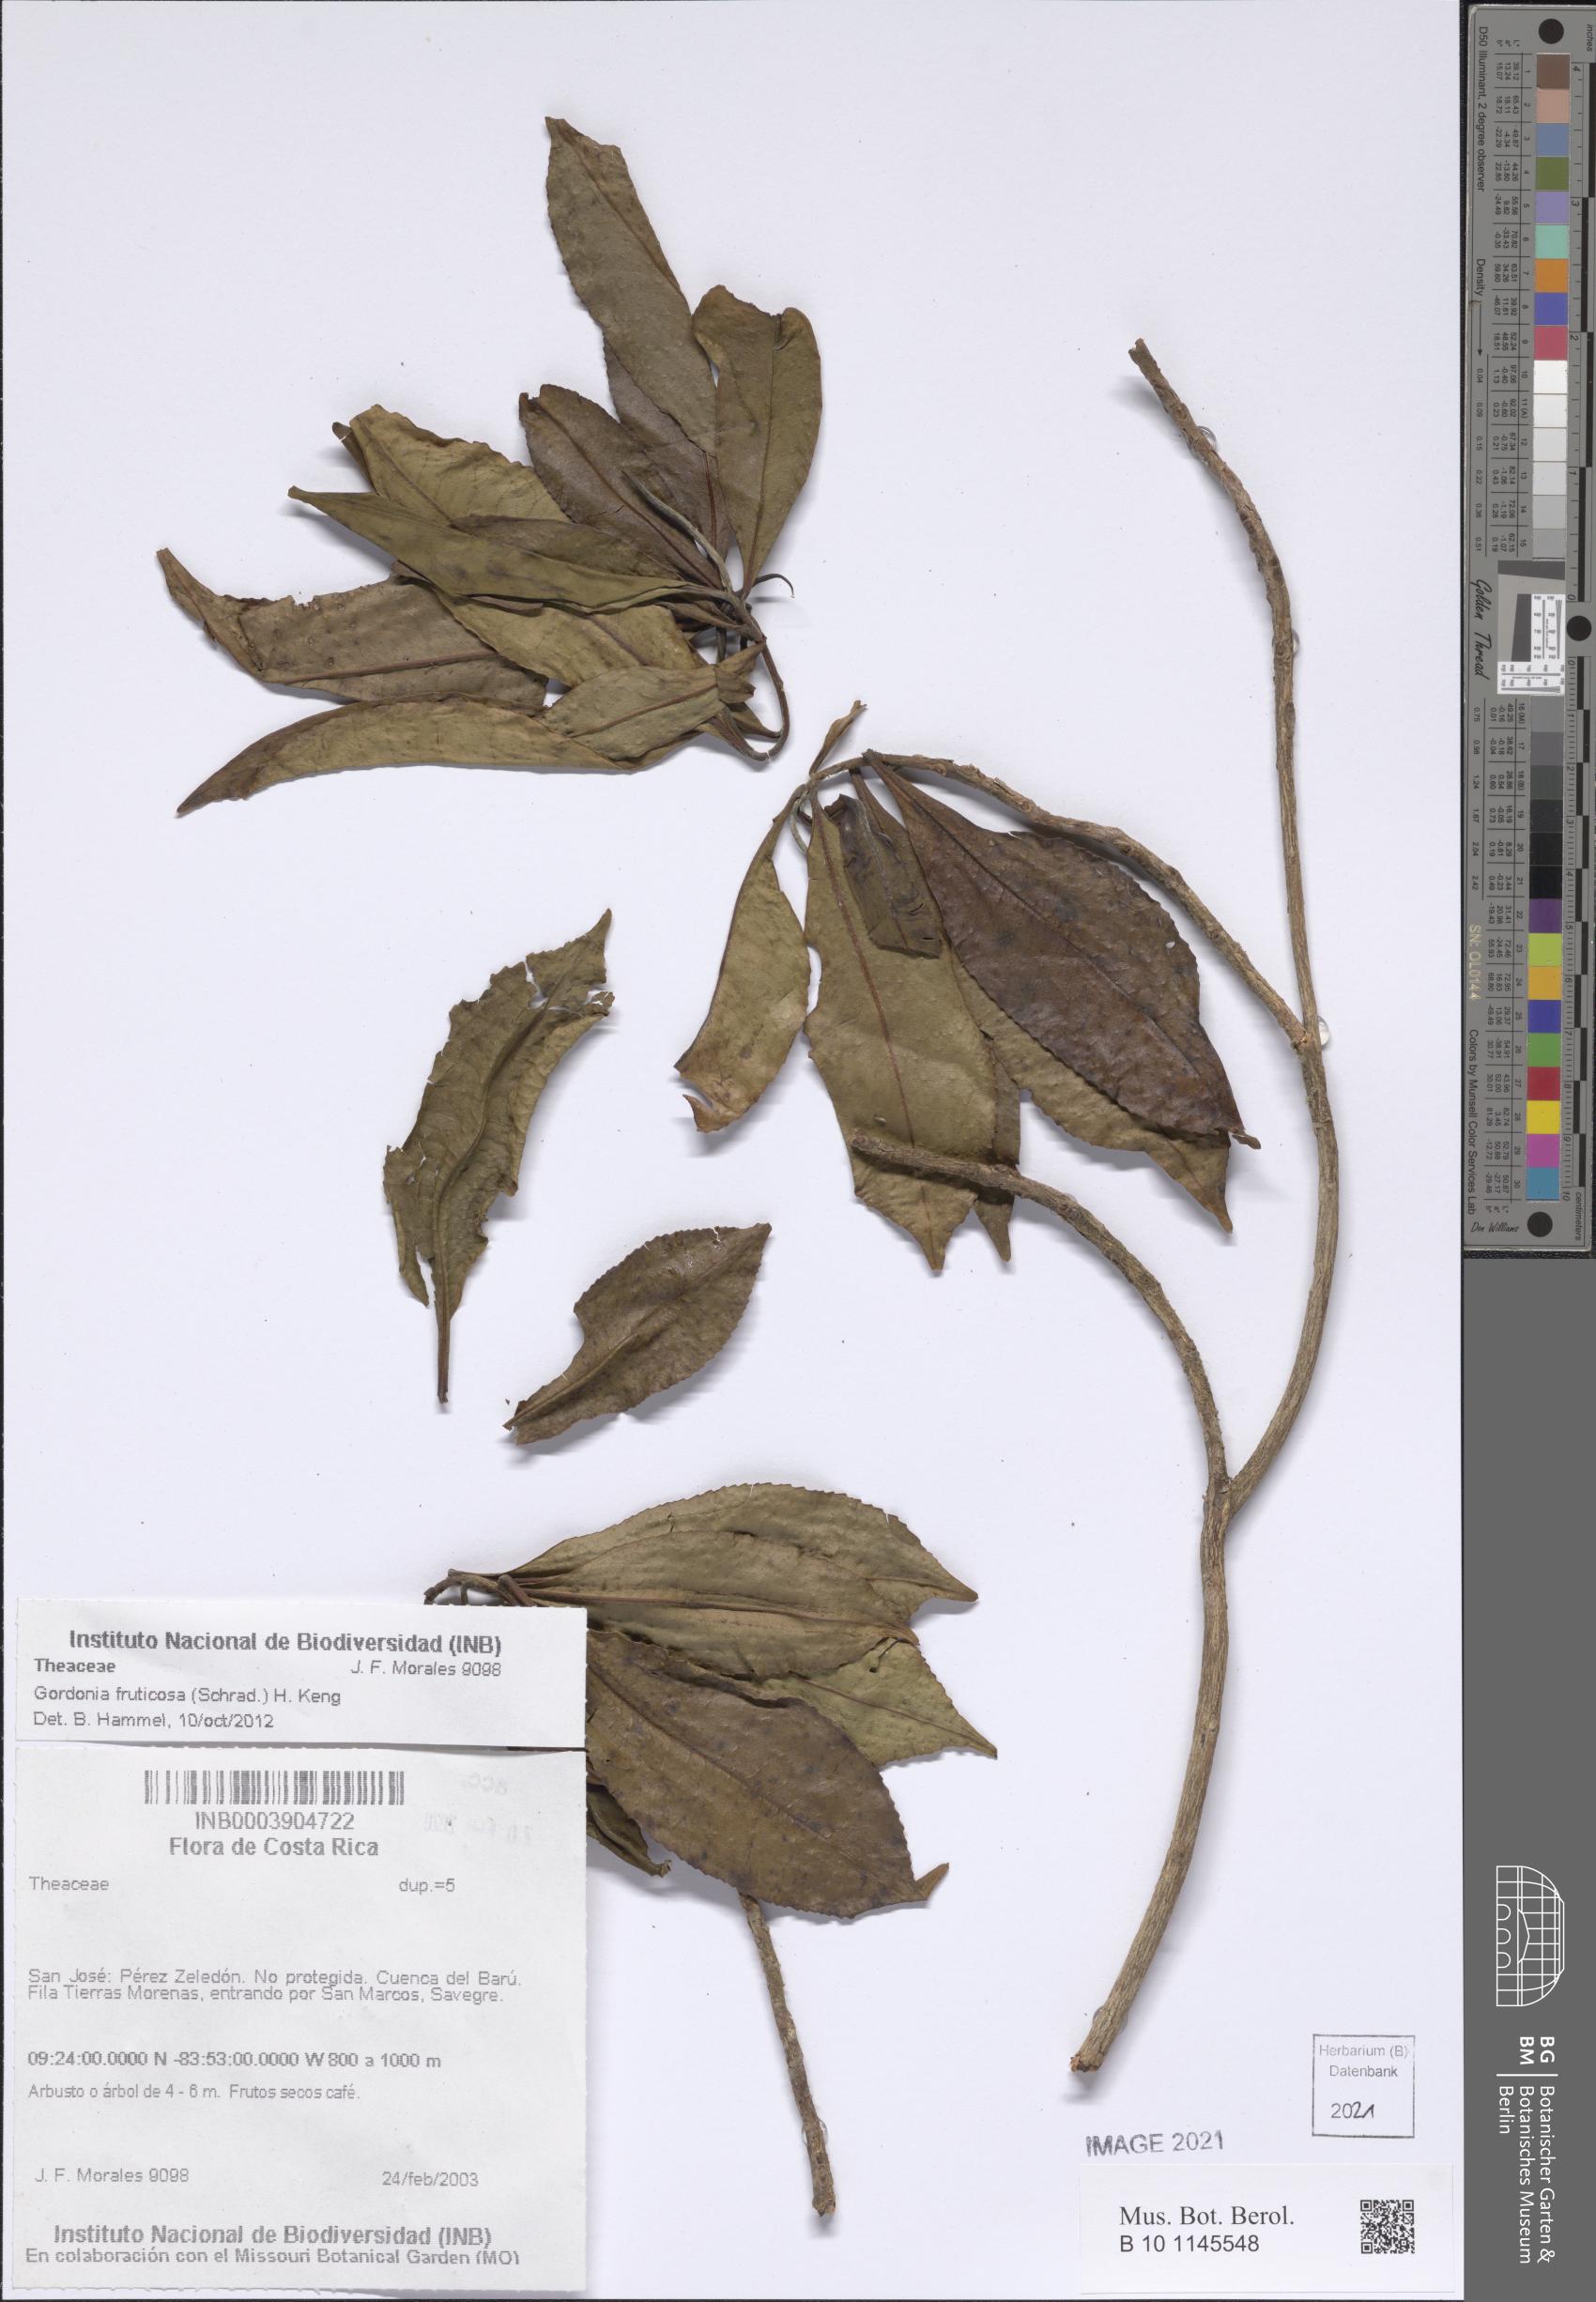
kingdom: Plantae
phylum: Tracheophyta
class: Magnoliopsida
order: Ericales
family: Theaceae
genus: Gordonia
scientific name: Gordonia fruticosa
